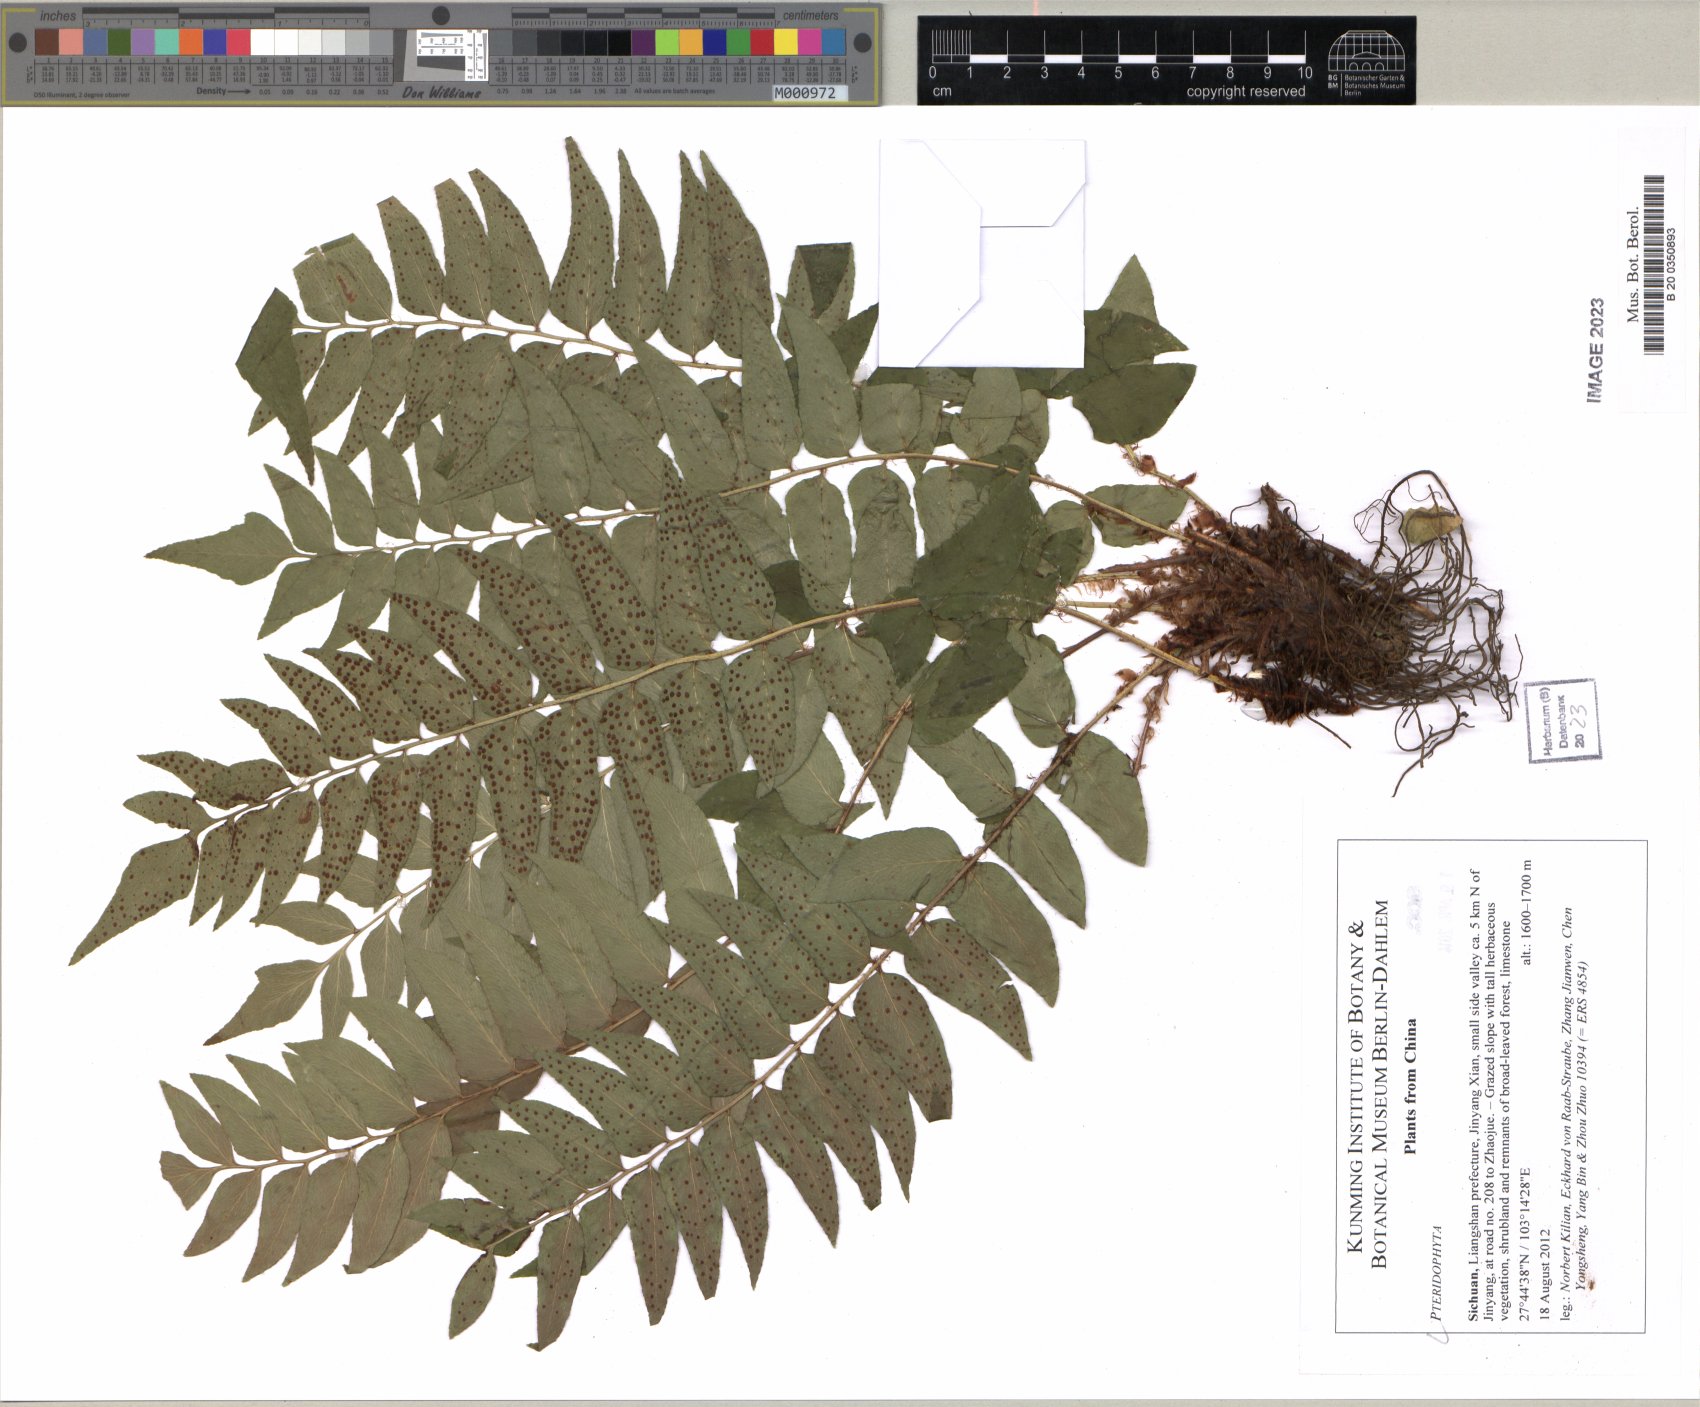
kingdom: Plantae
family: Pteridophyta
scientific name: Pteridophyta
